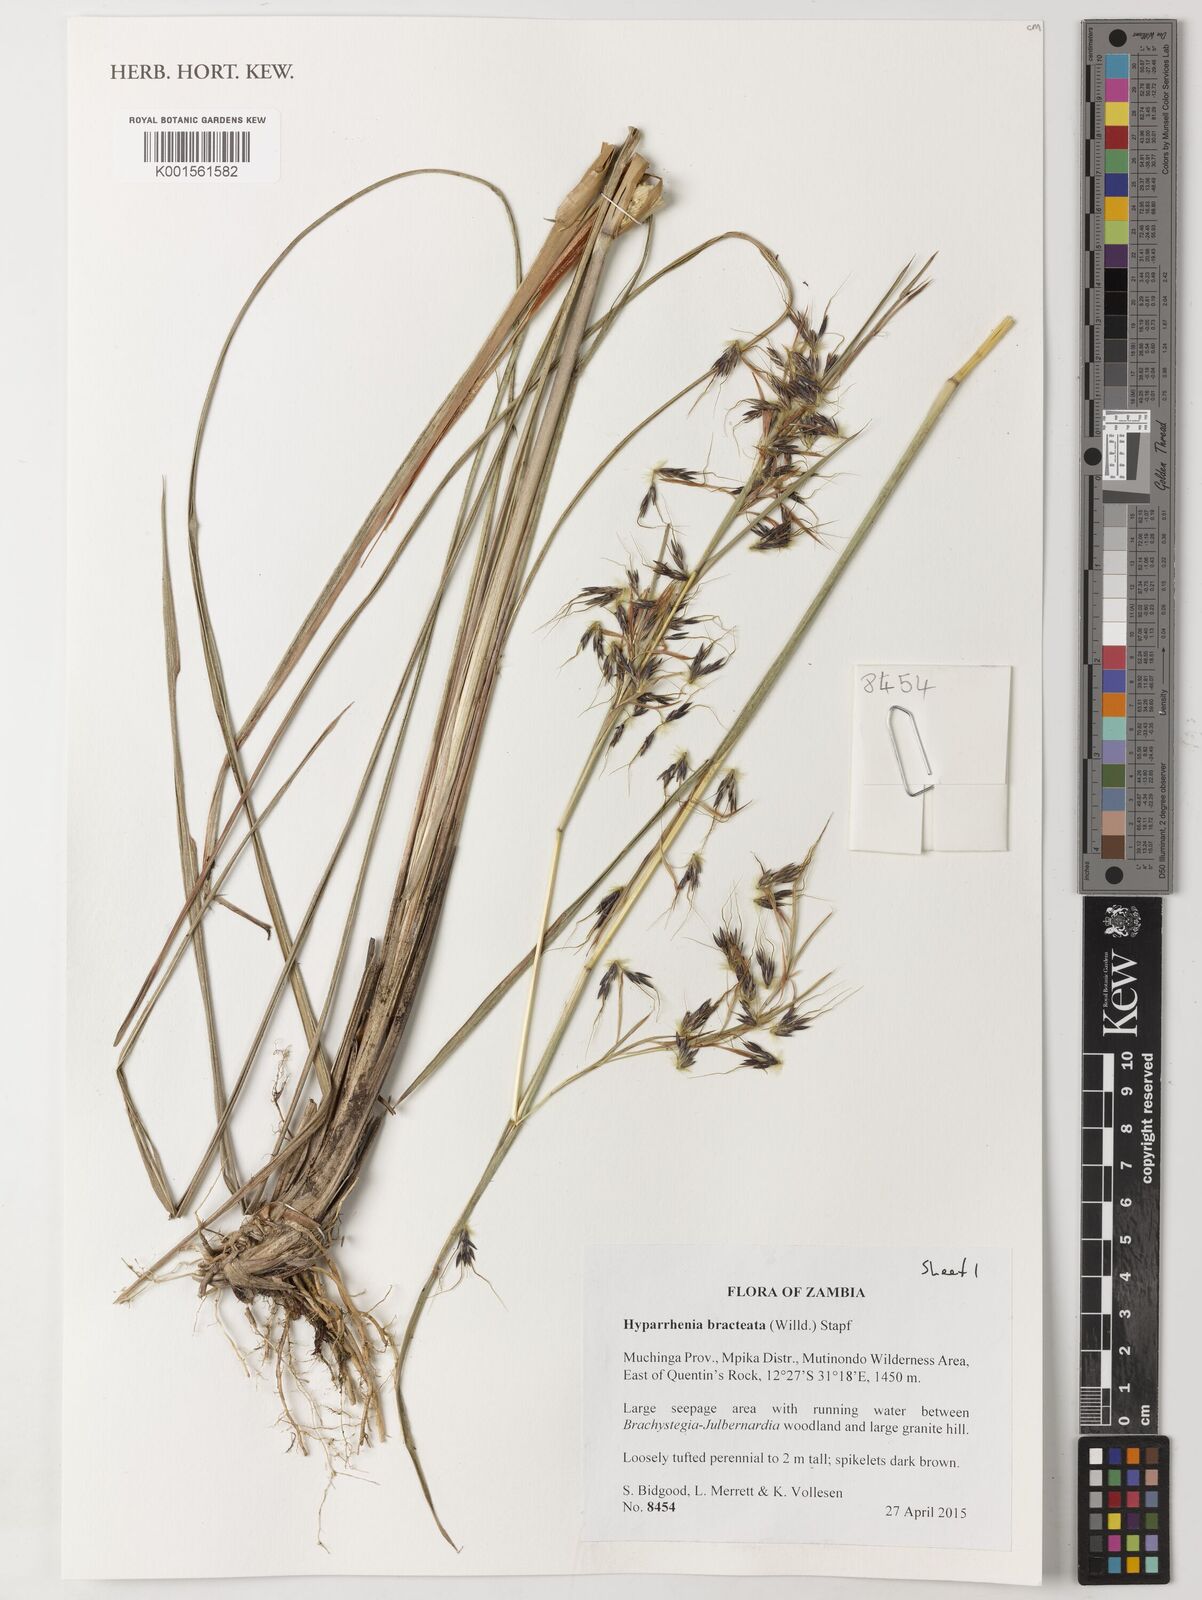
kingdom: Plantae
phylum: Tracheophyta
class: Liliopsida
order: Poales
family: Poaceae
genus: Hyparrhenia
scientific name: Hyparrhenia bracteata
